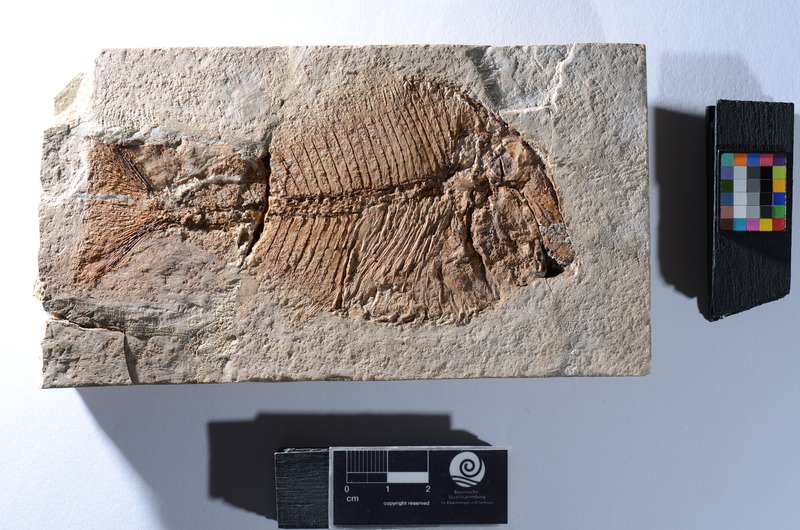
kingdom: Animalia
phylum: Chordata
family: Pycnodontidae
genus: Pycnodus
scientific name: Pycnodus Zeus platessus
